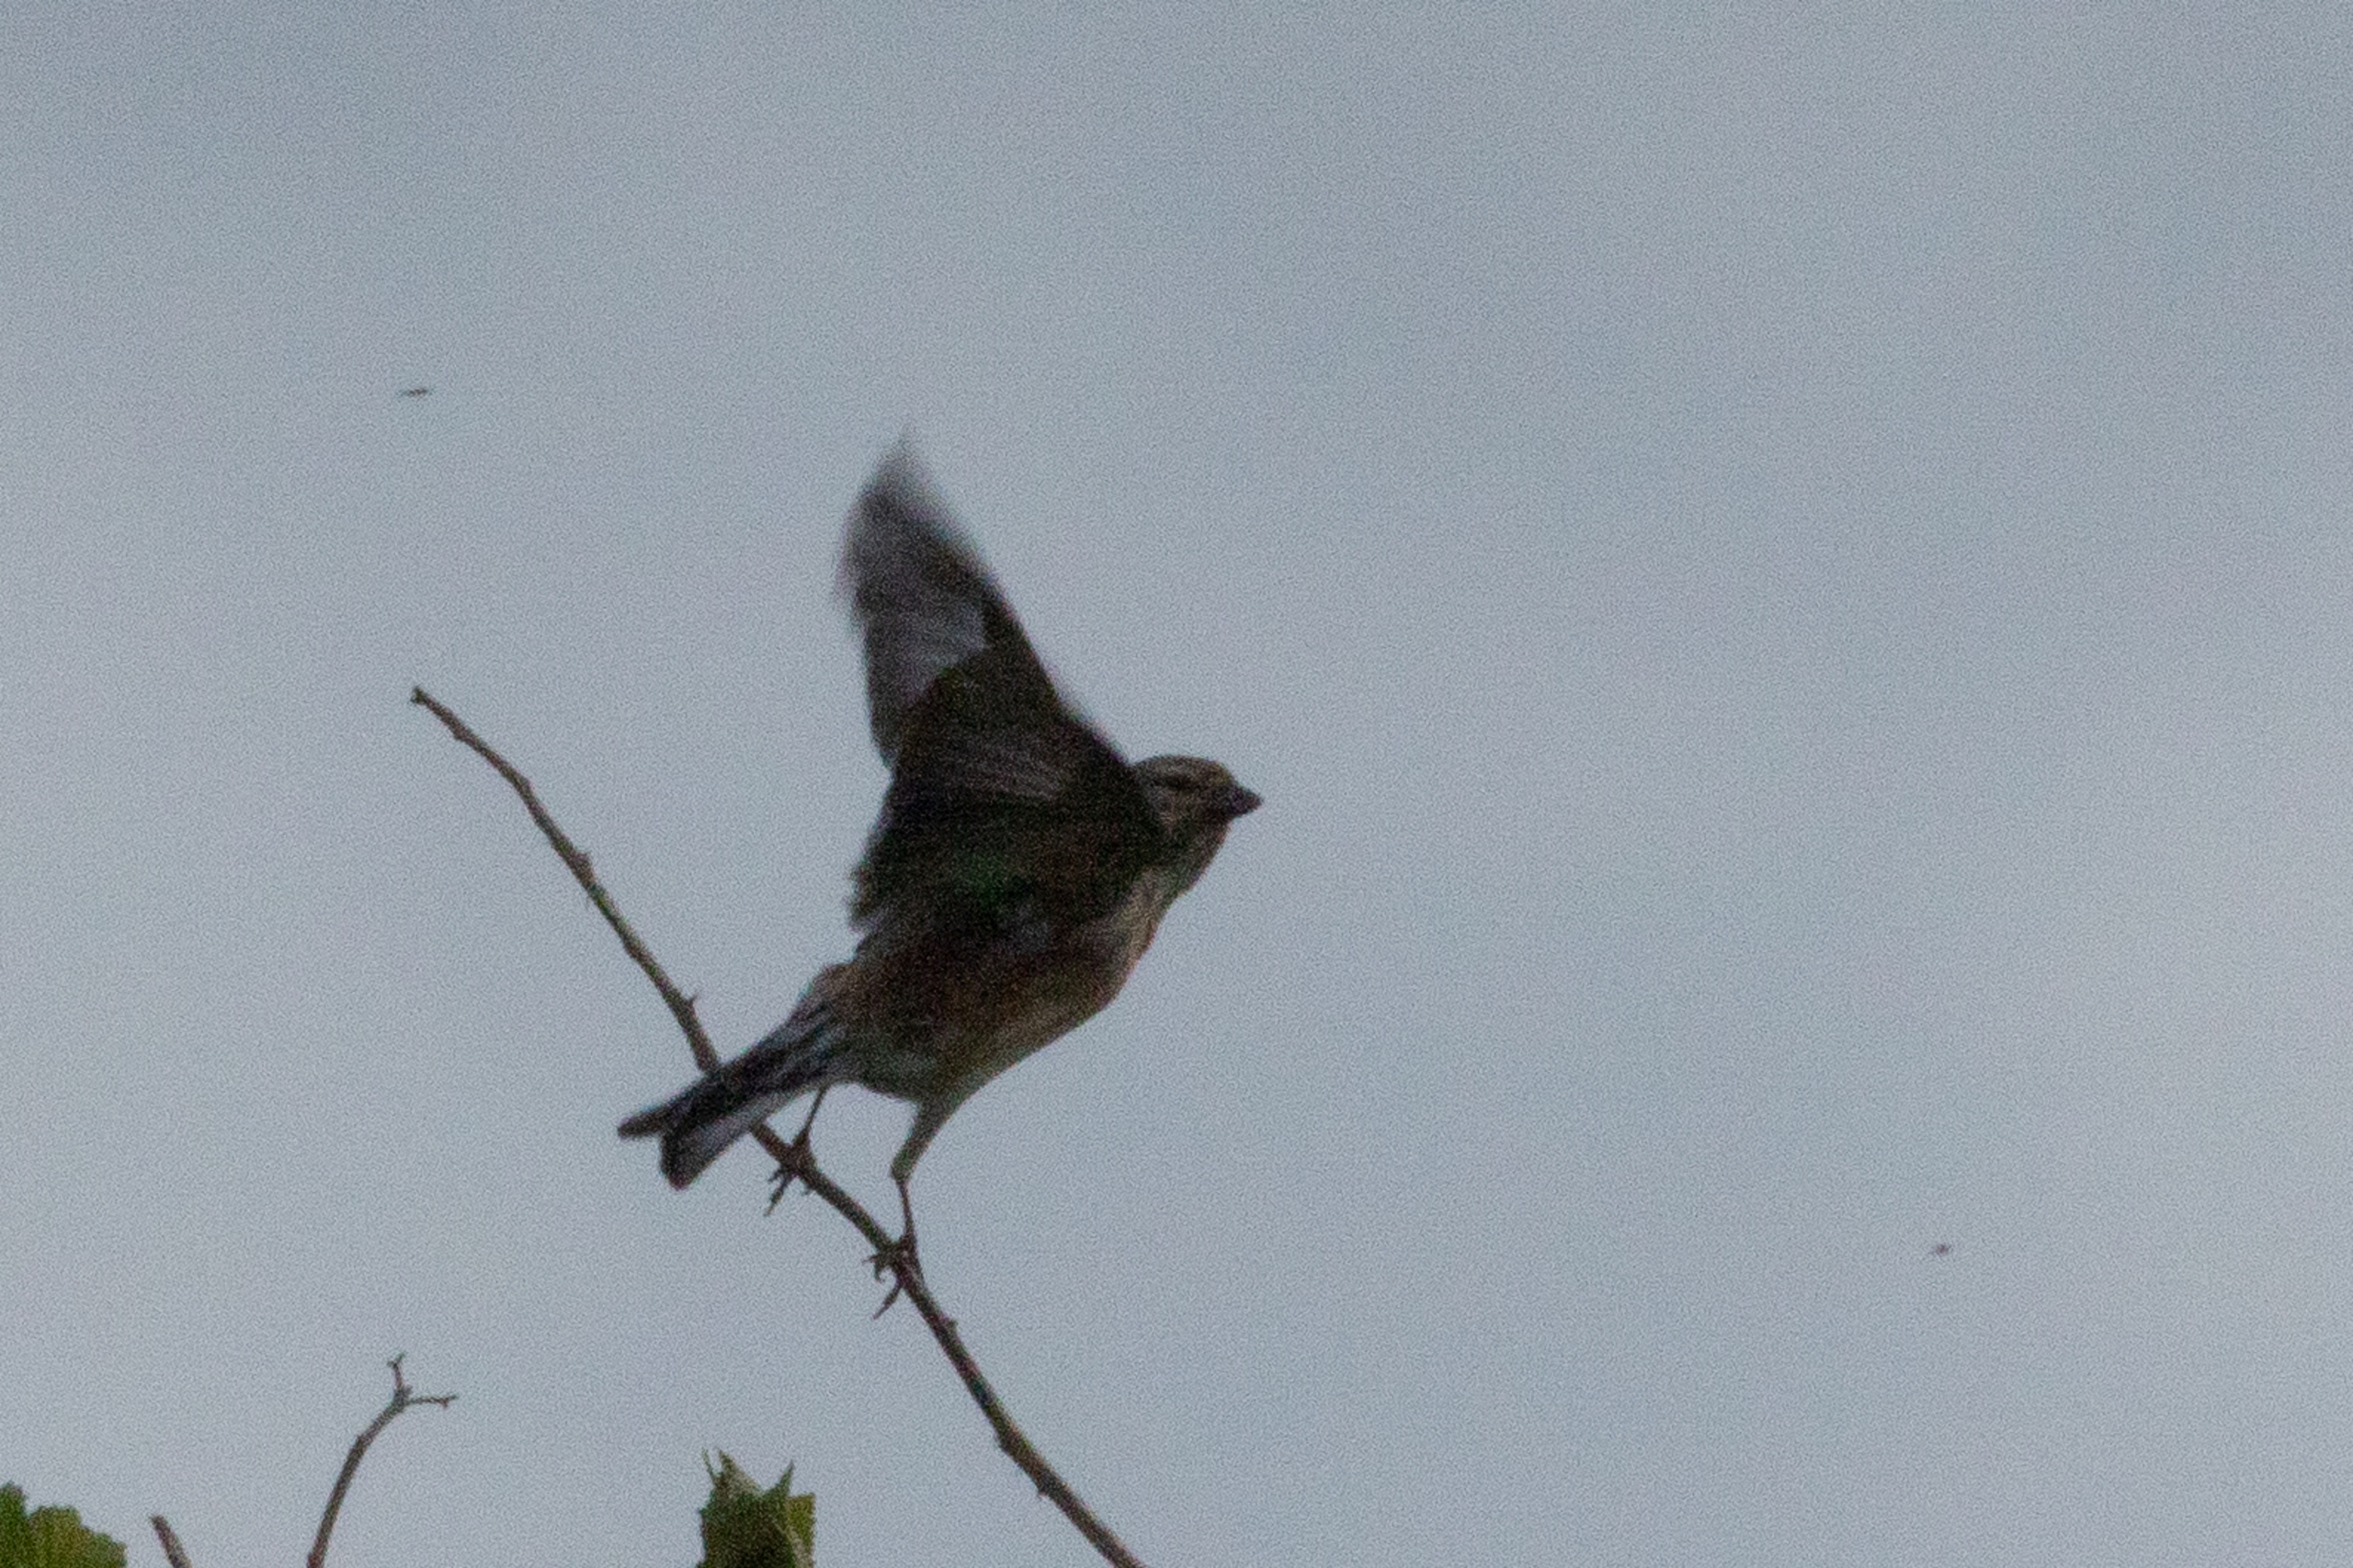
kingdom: Animalia
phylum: Chordata
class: Aves
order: Passeriformes
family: Fringillidae
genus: Linaria
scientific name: Linaria cannabina
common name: Tornirisk
